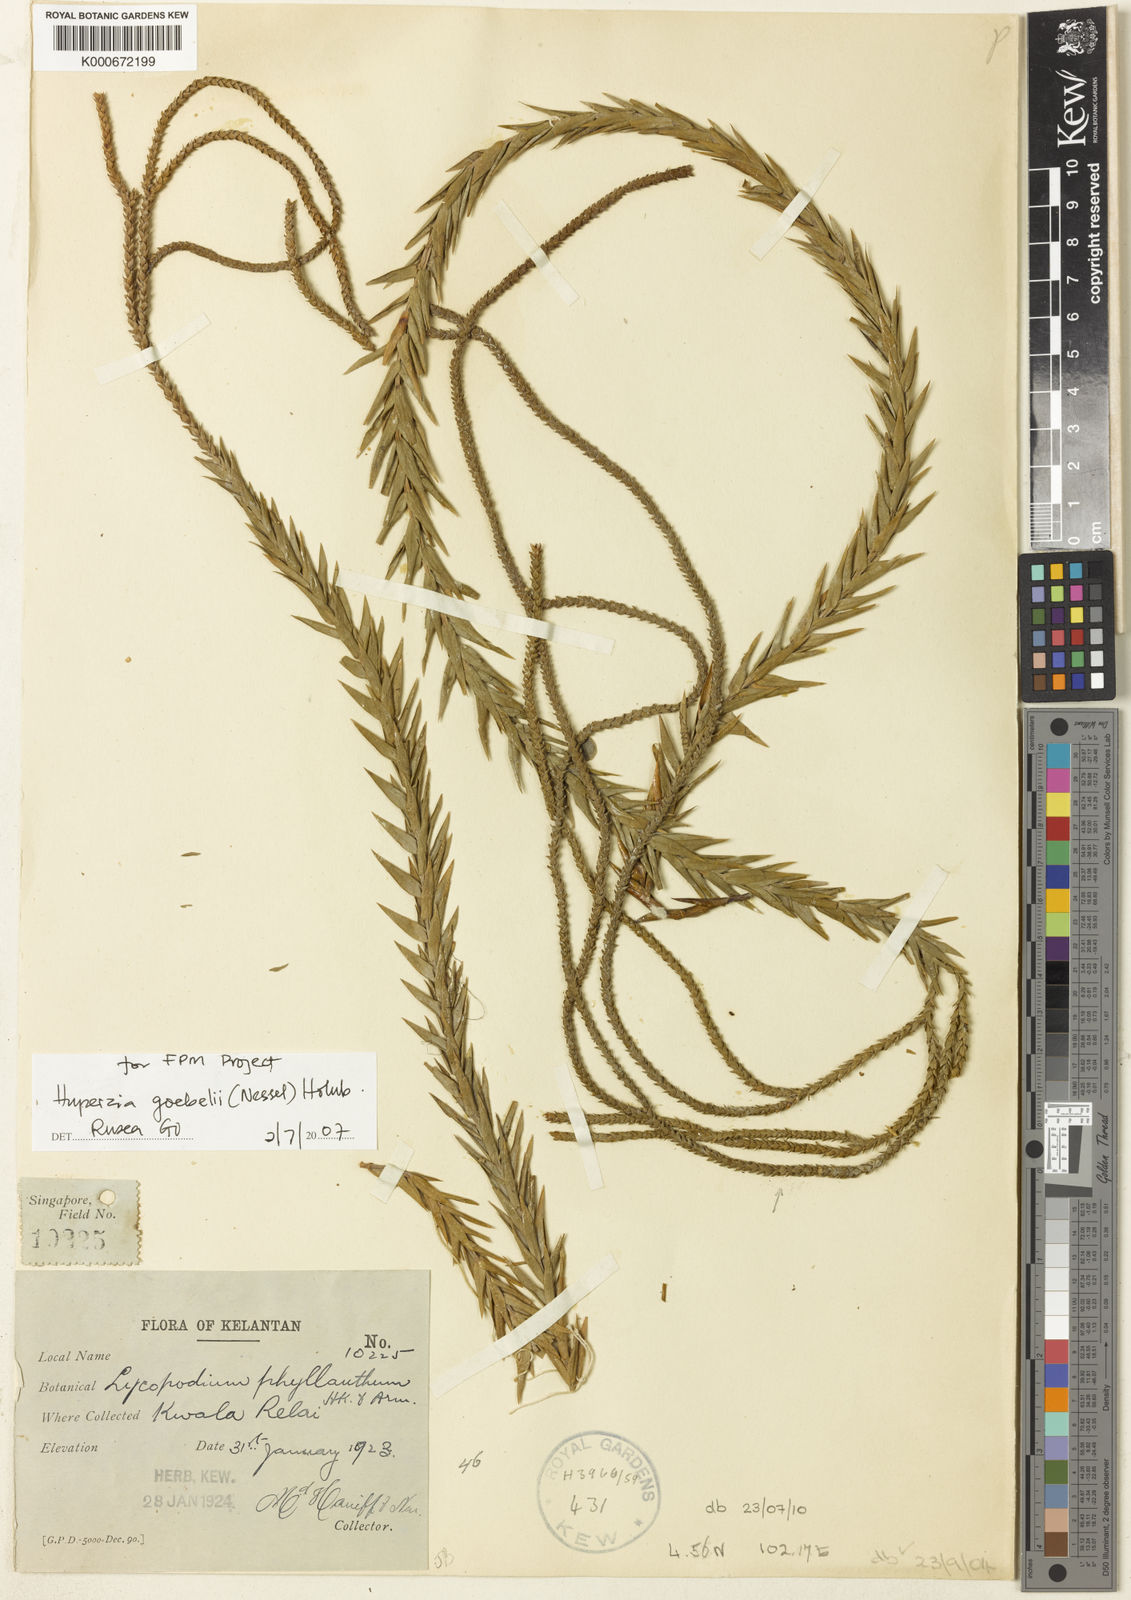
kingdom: Plantae
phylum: Tracheophyta
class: Lycopodiopsida
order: Lycopodiales
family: Lycopodiaceae
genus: Phlegmariurus
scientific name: Phlegmariurus phyllanthus
